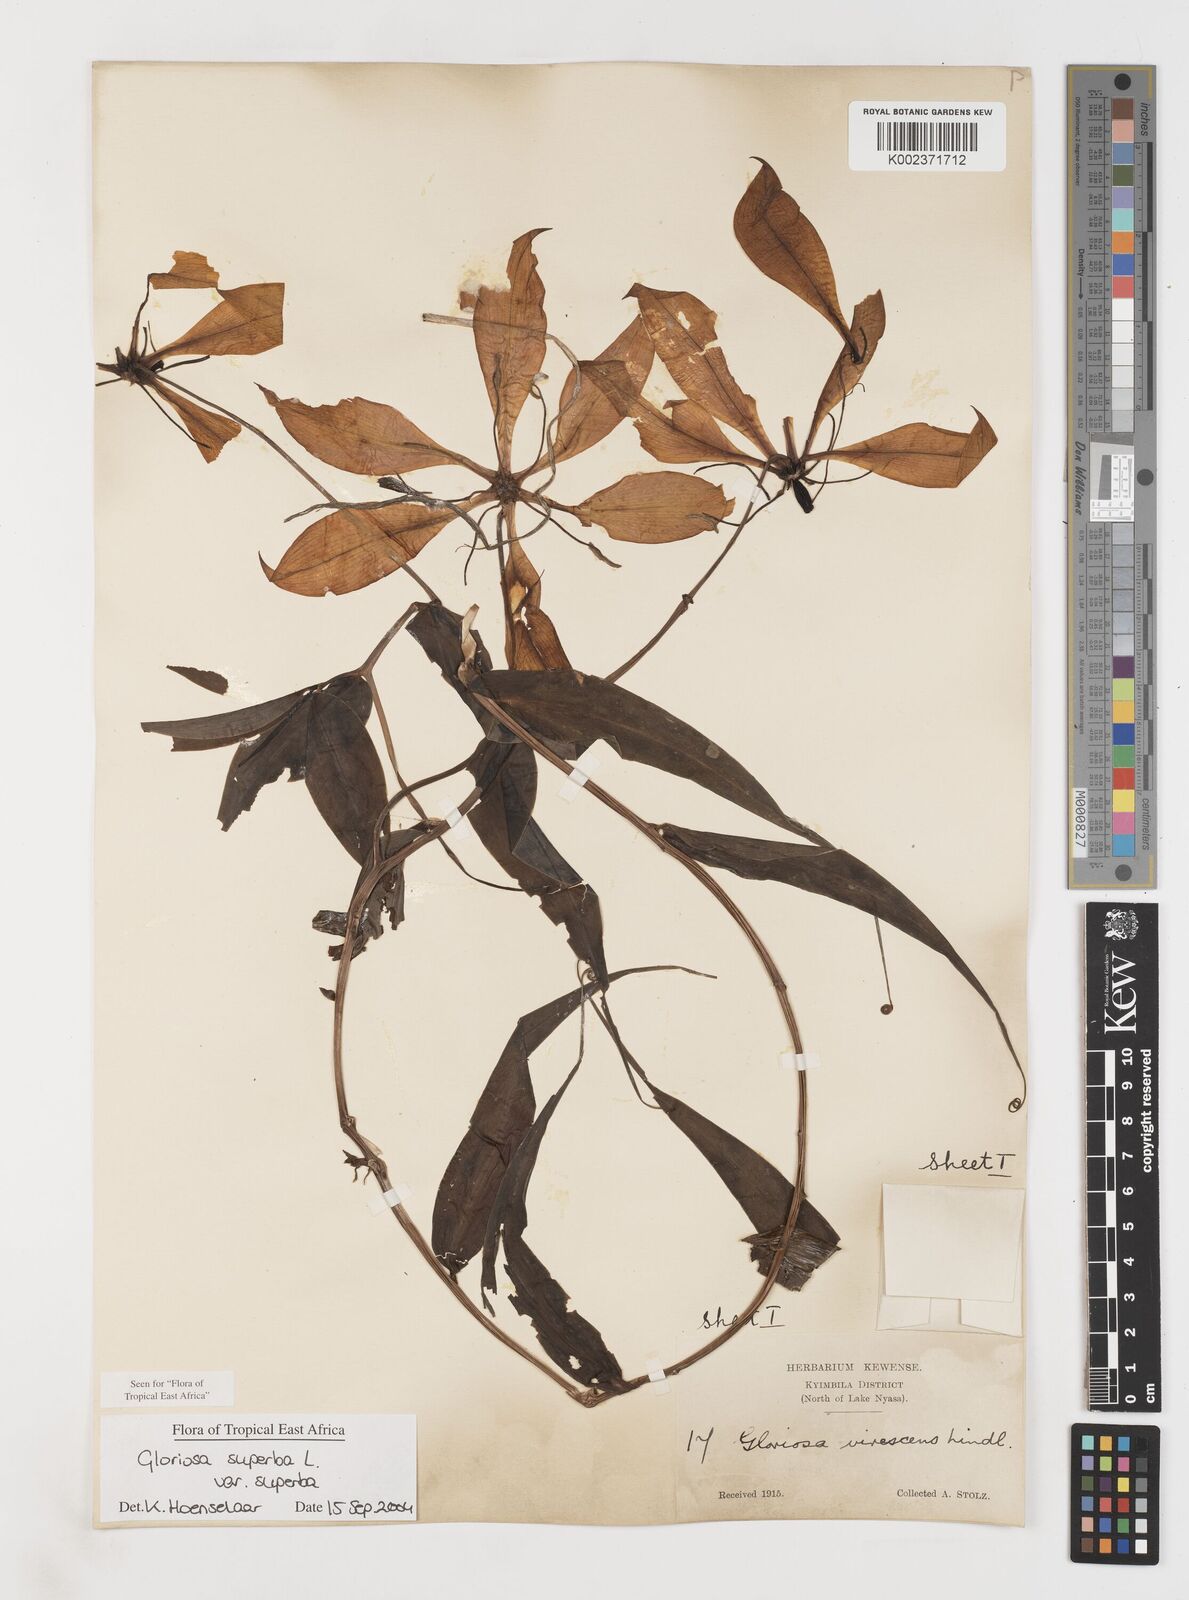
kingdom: Plantae
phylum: Tracheophyta
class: Liliopsida
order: Liliales
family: Colchicaceae
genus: Gloriosa
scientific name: Gloriosa simplex
